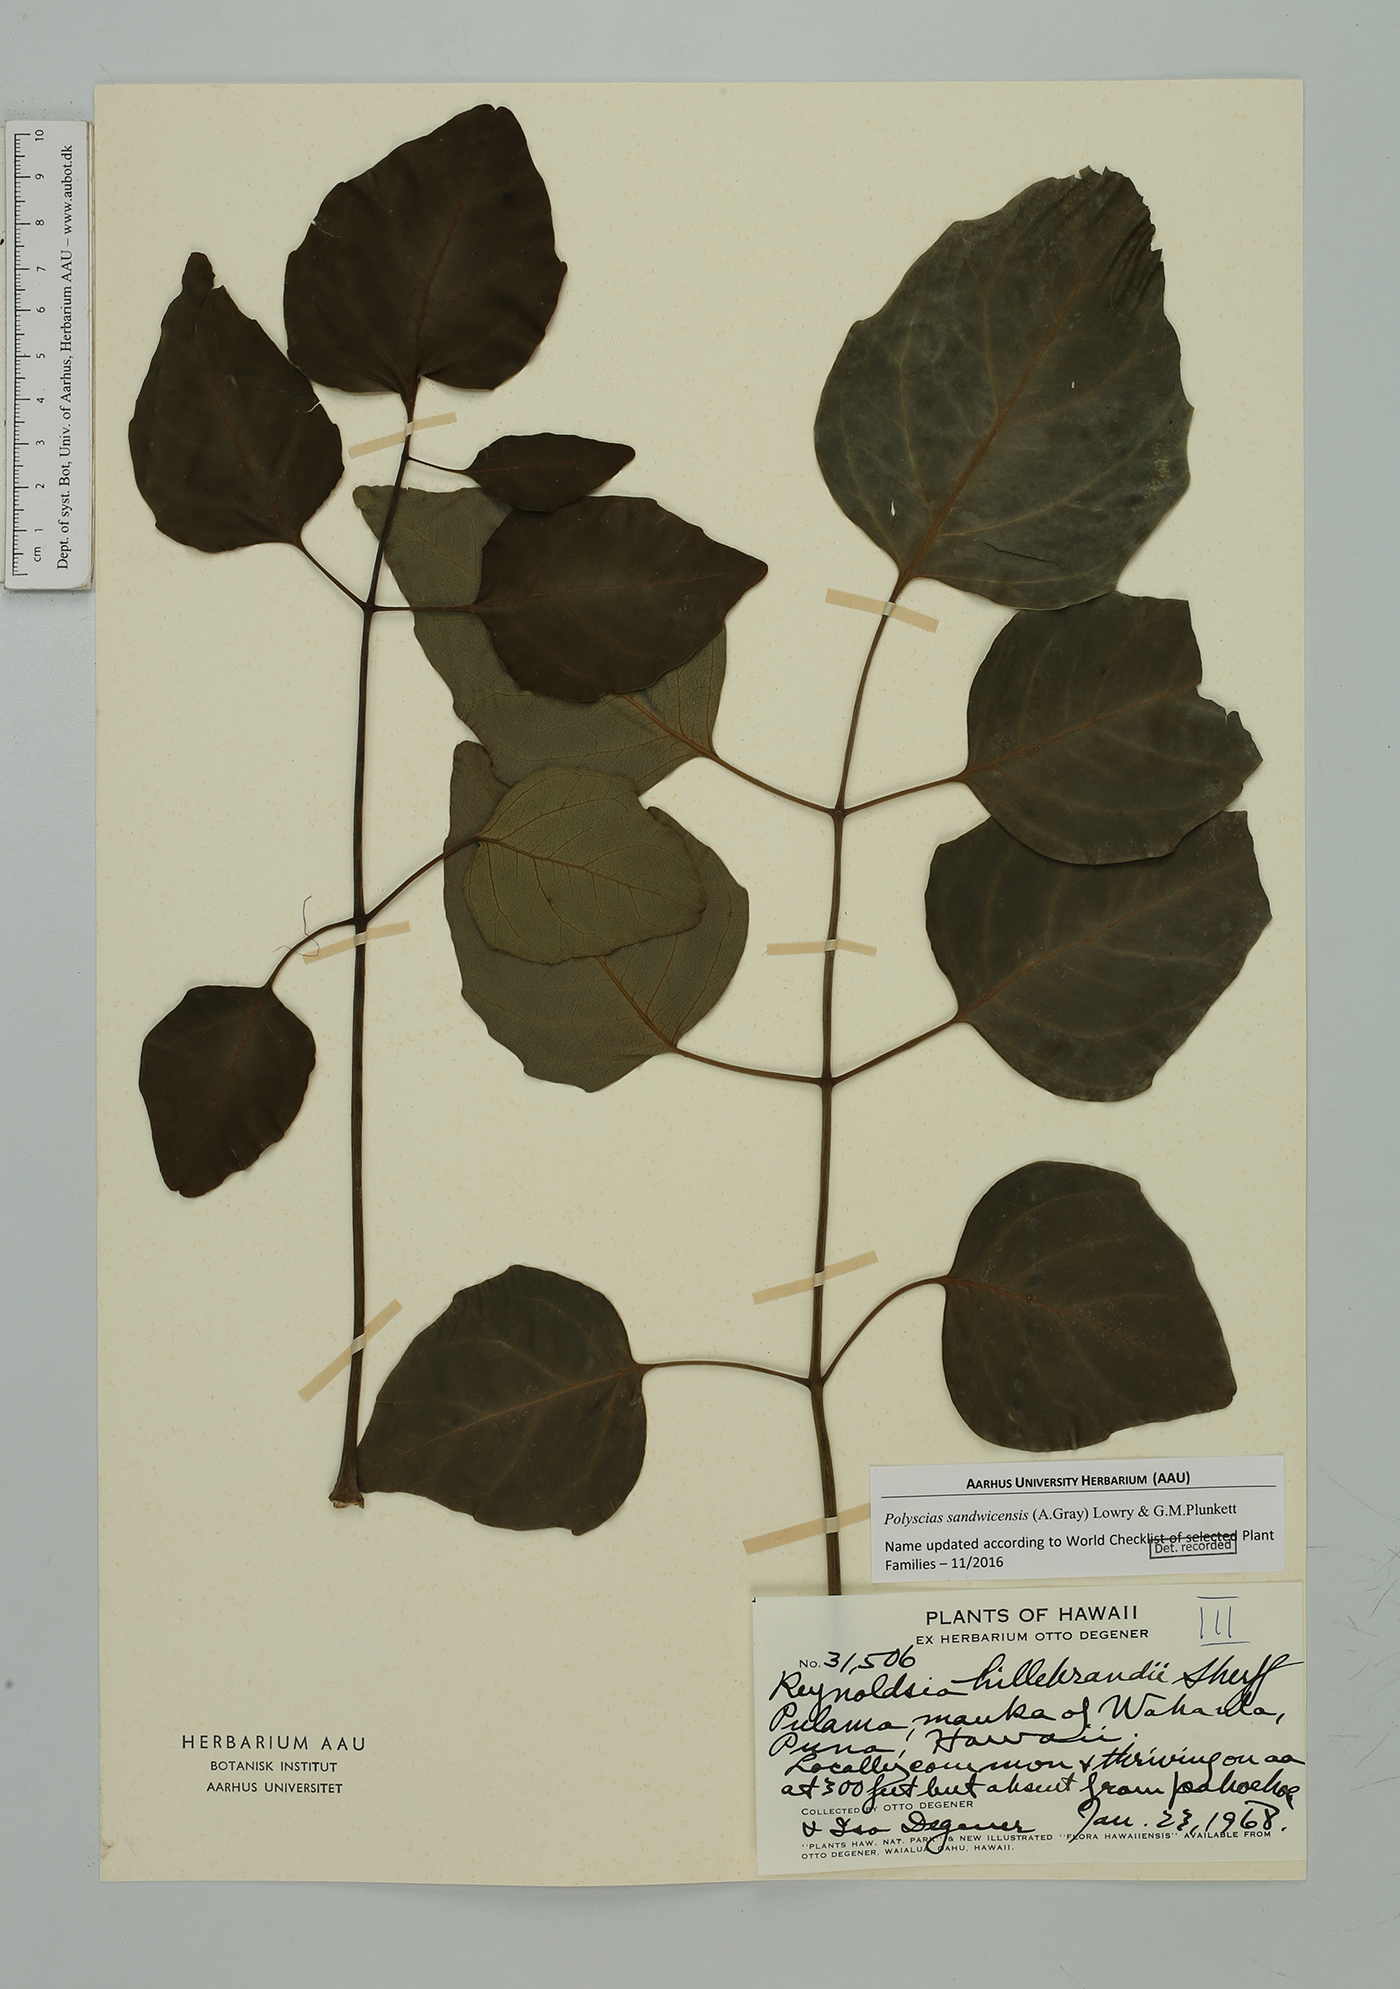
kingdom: Plantae
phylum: Tracheophyta
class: Magnoliopsida
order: Apiales
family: Araliaceae
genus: Polyscias
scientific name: Polyscias sandwicensis
